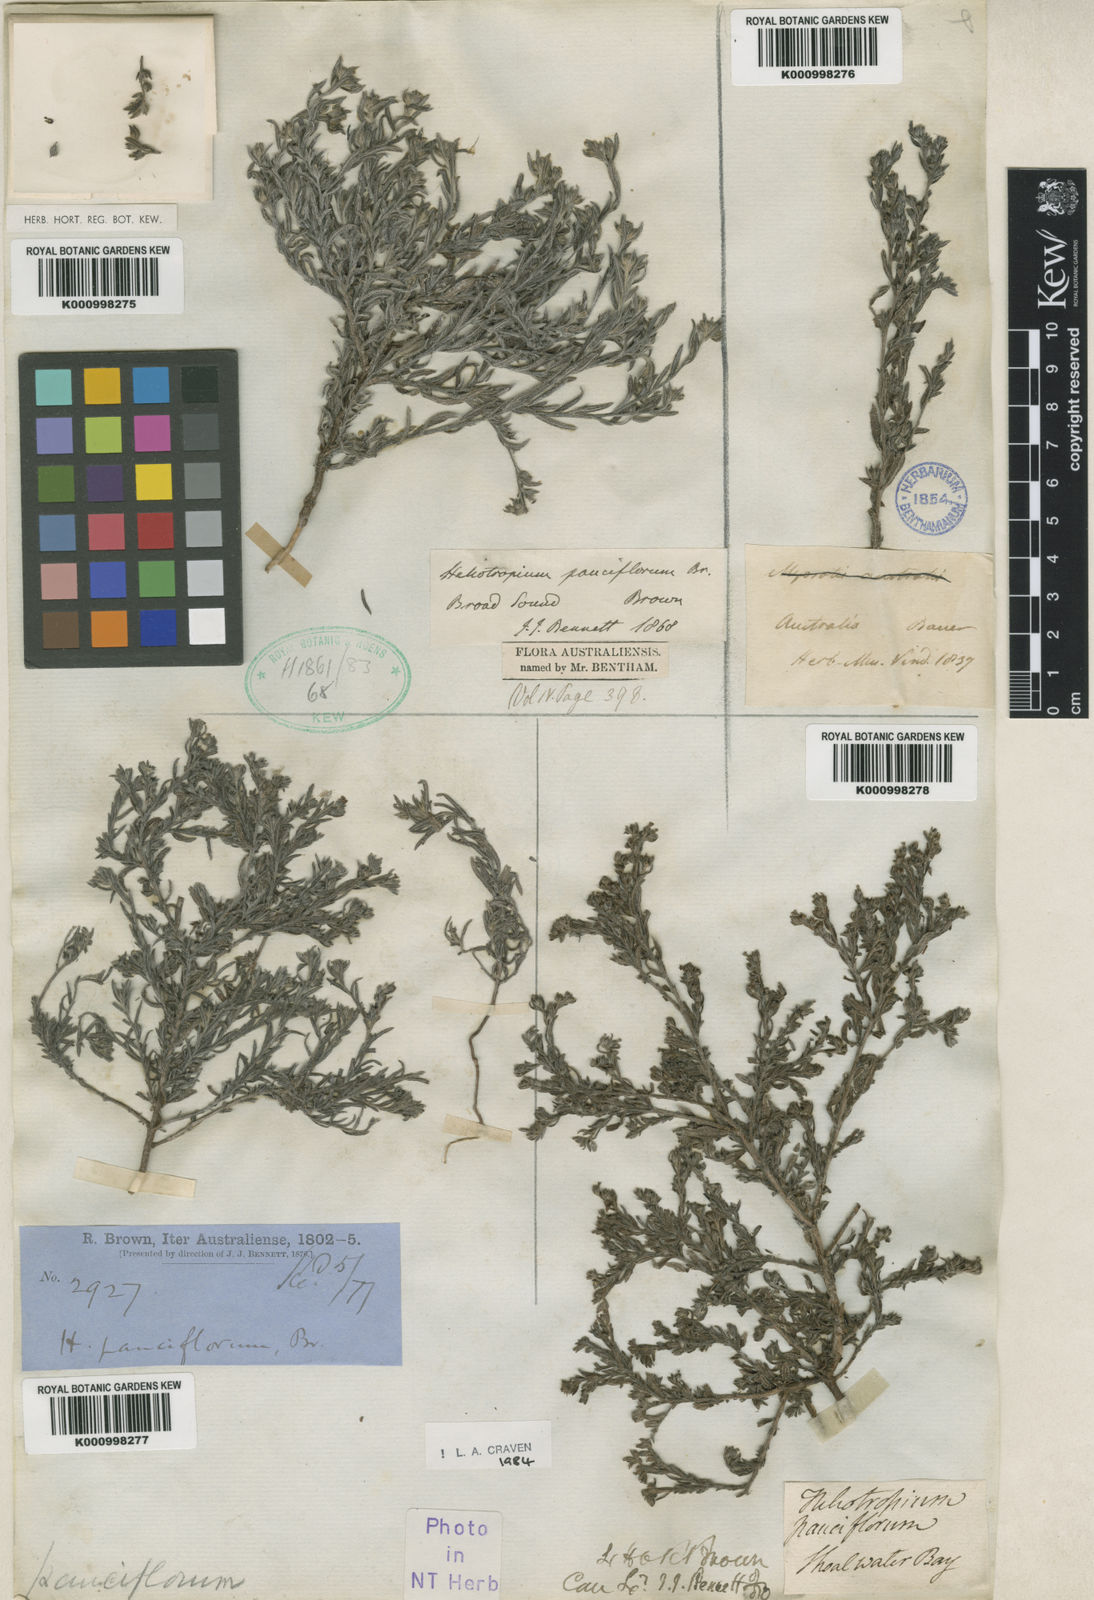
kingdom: Plantae
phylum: Tracheophyta
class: Magnoliopsida
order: Boraginales
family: Heliotropiaceae
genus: Euploca
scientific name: Euploca pauciflora
